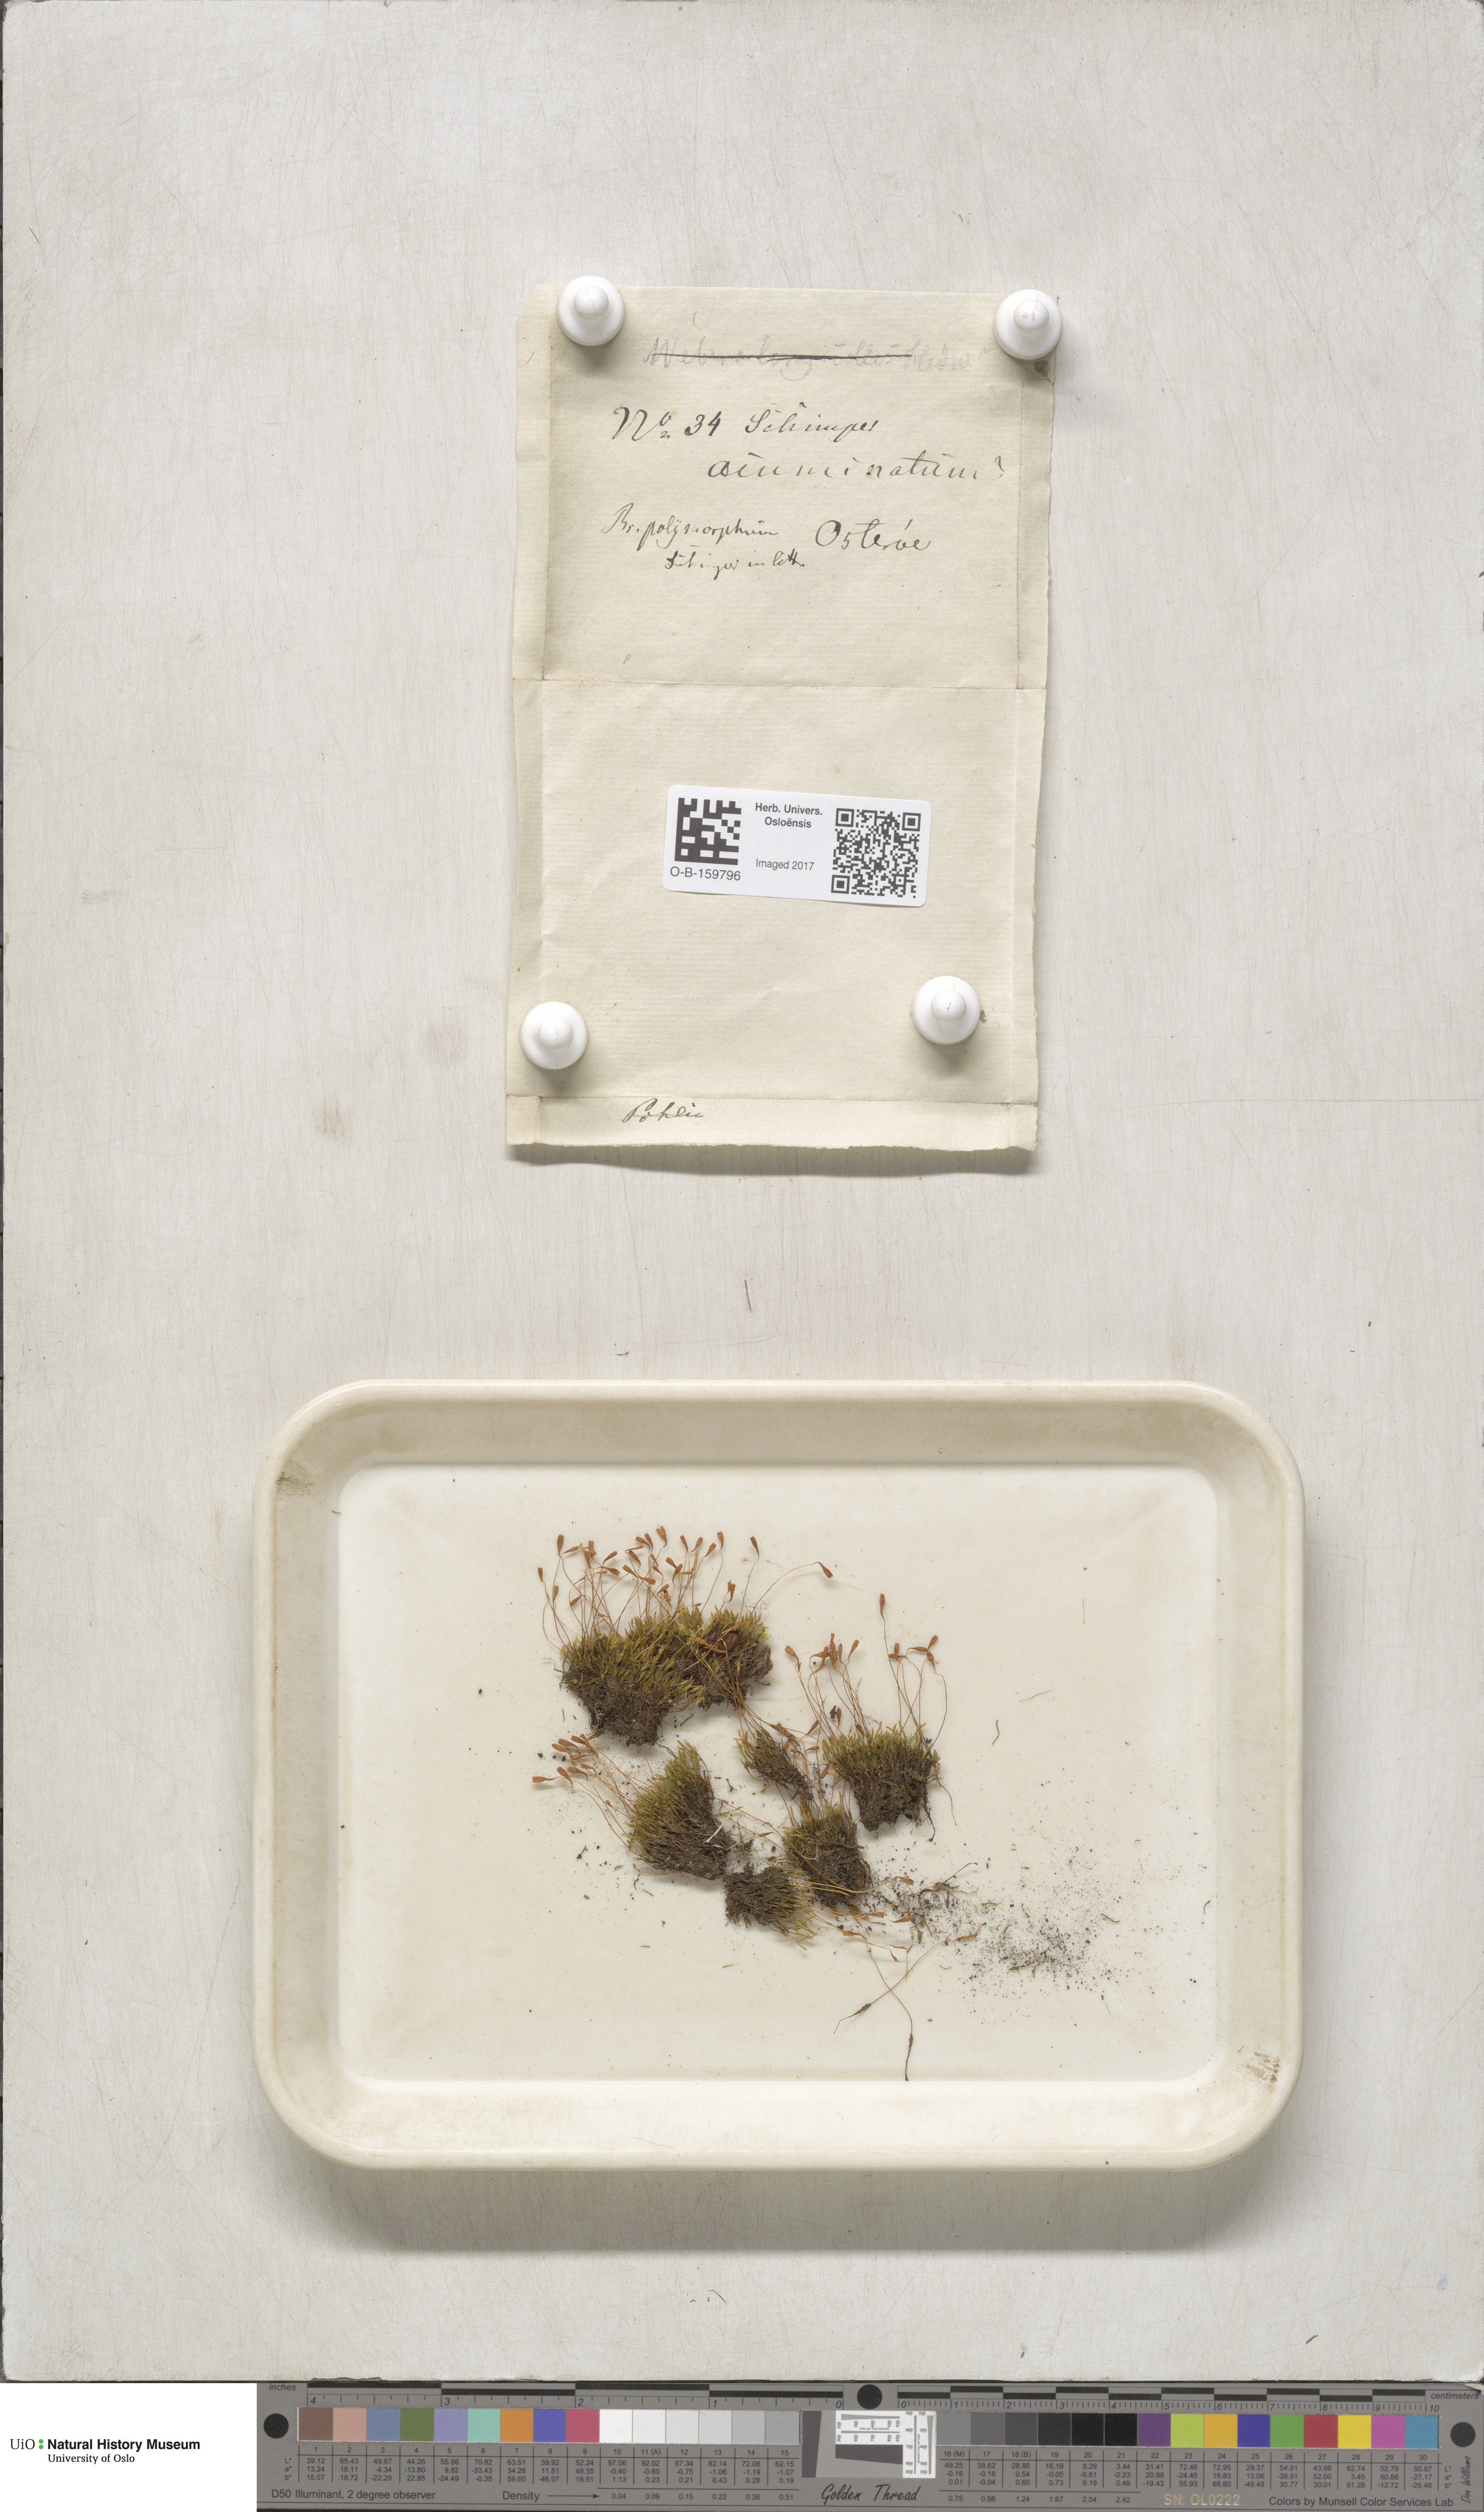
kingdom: Plantae
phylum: Bryophyta
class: Bryopsida
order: Bryales
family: Mniaceae
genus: Pohlia
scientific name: Pohlia elongata
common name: Long-fruited thread-moss
